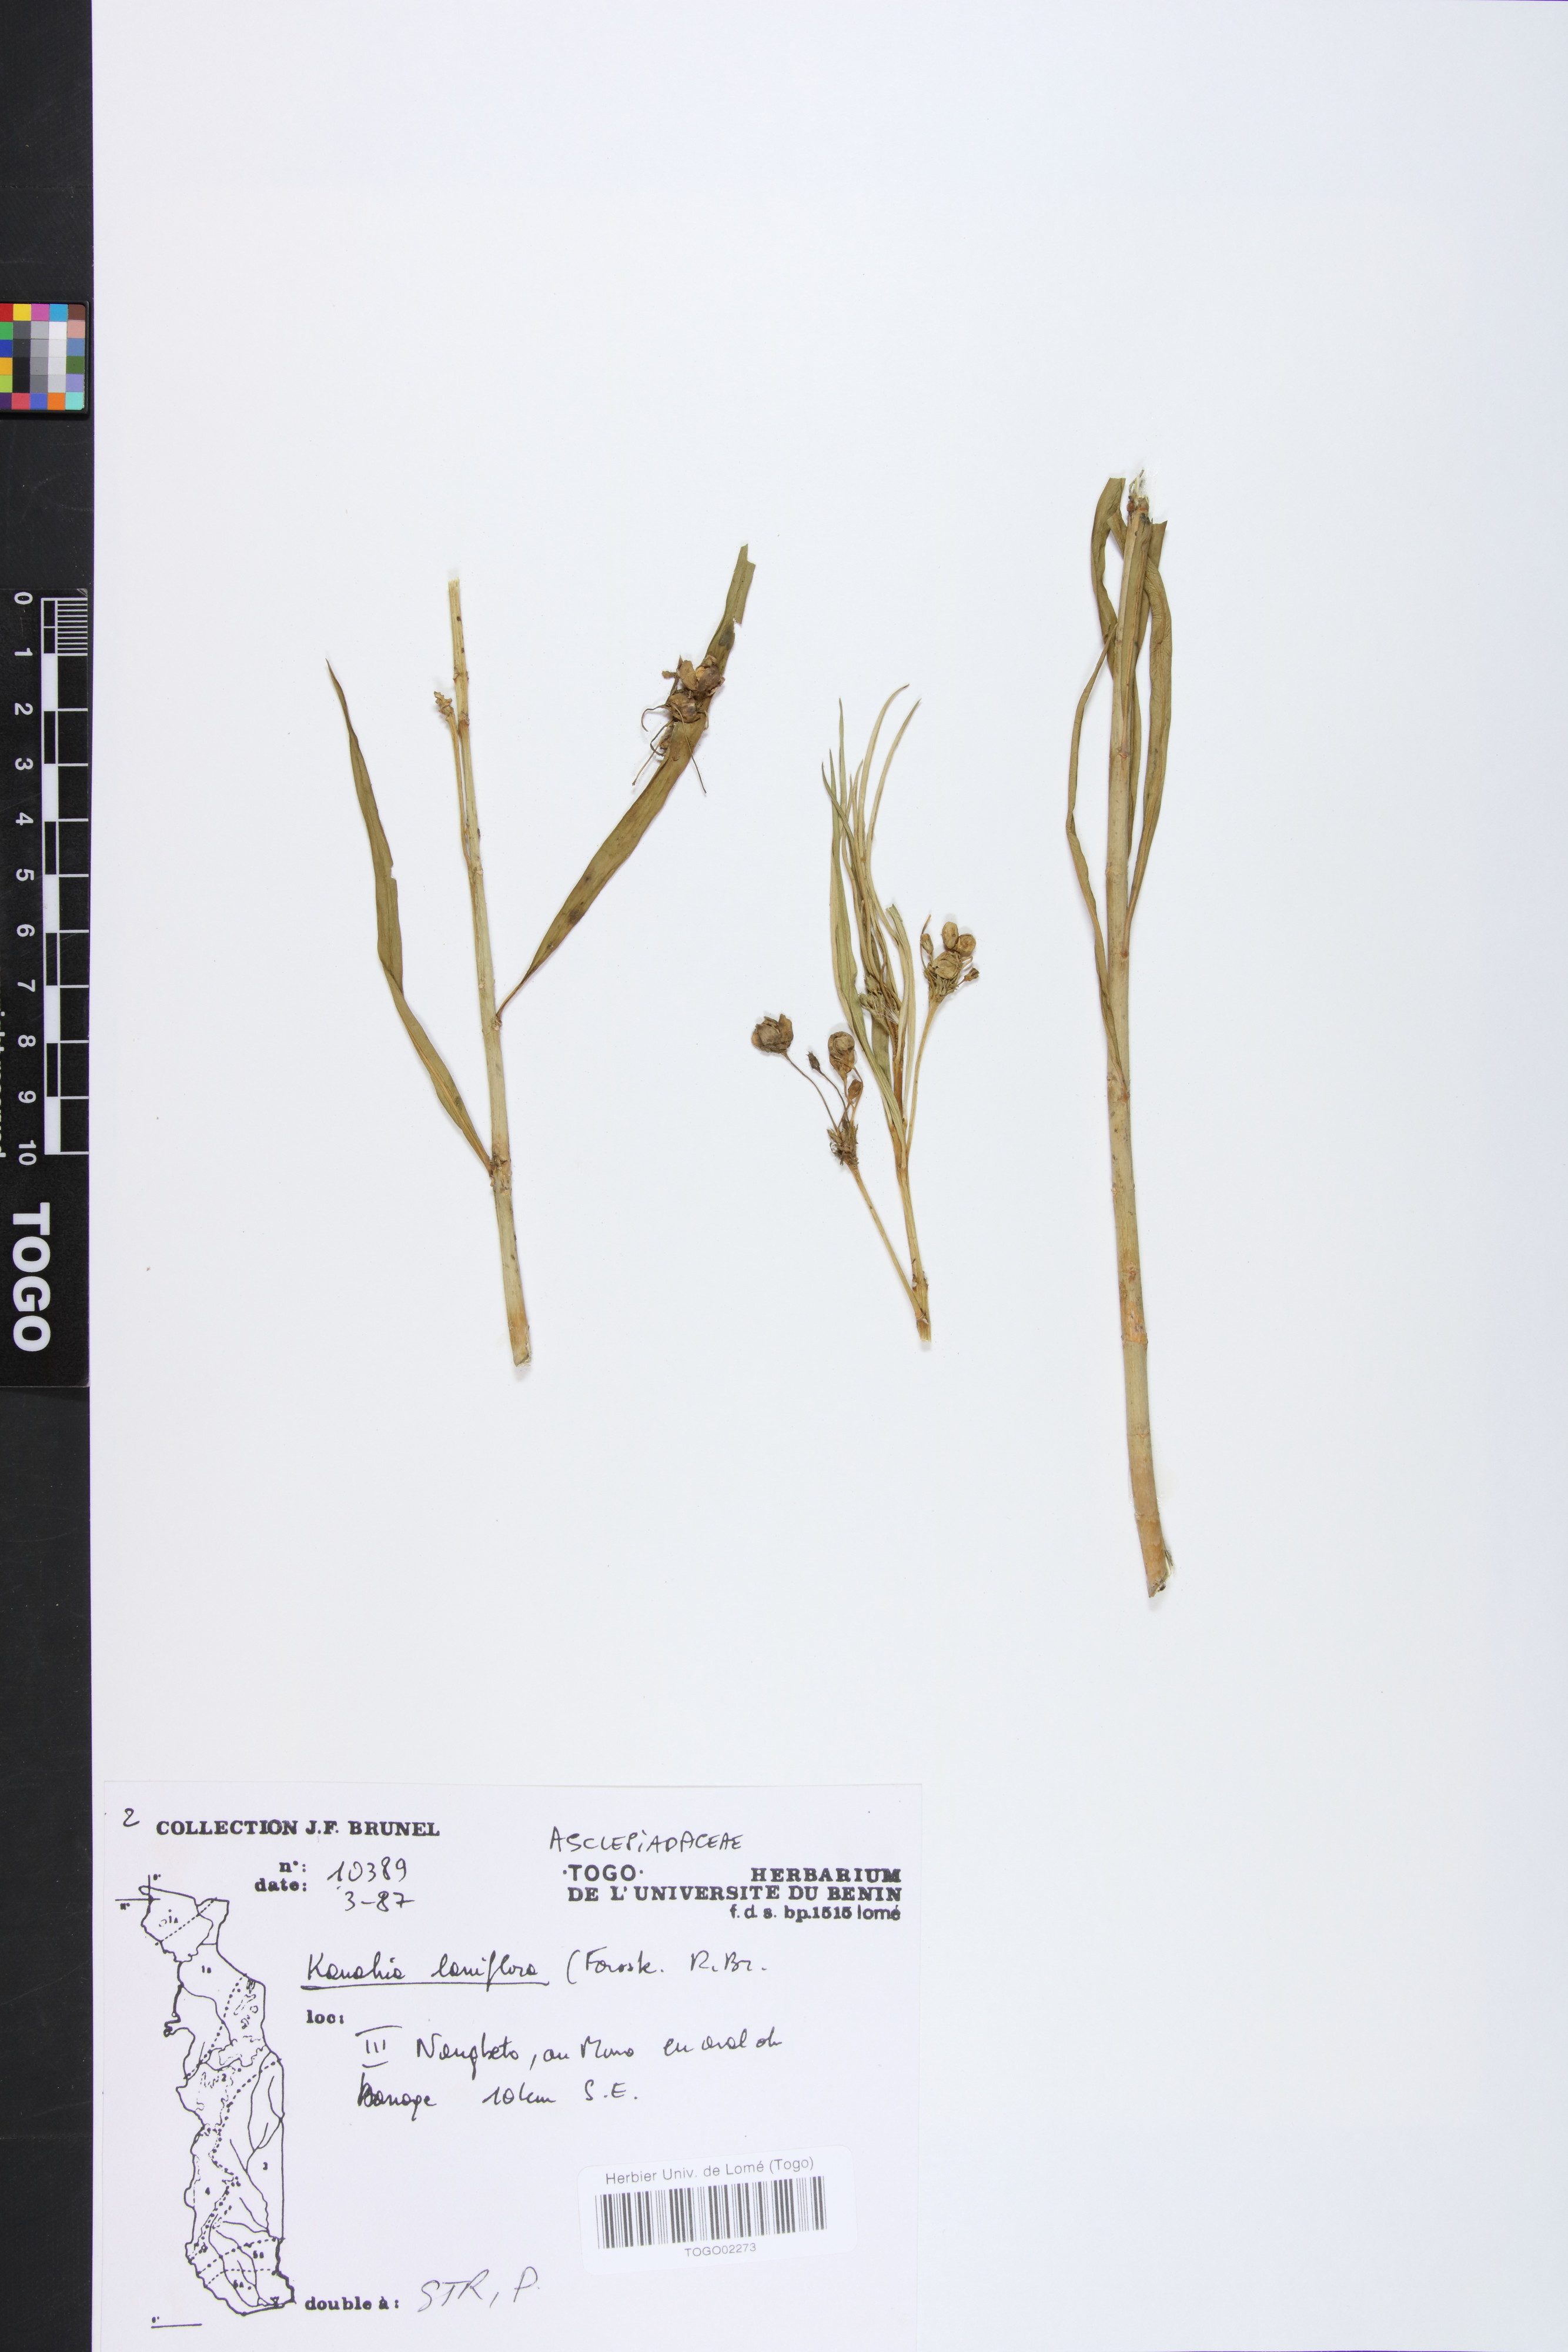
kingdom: Plantae
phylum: Tracheophyta
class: Magnoliopsida
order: Gentianales
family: Apocynaceae
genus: Kanahia
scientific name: Kanahia laniflora
